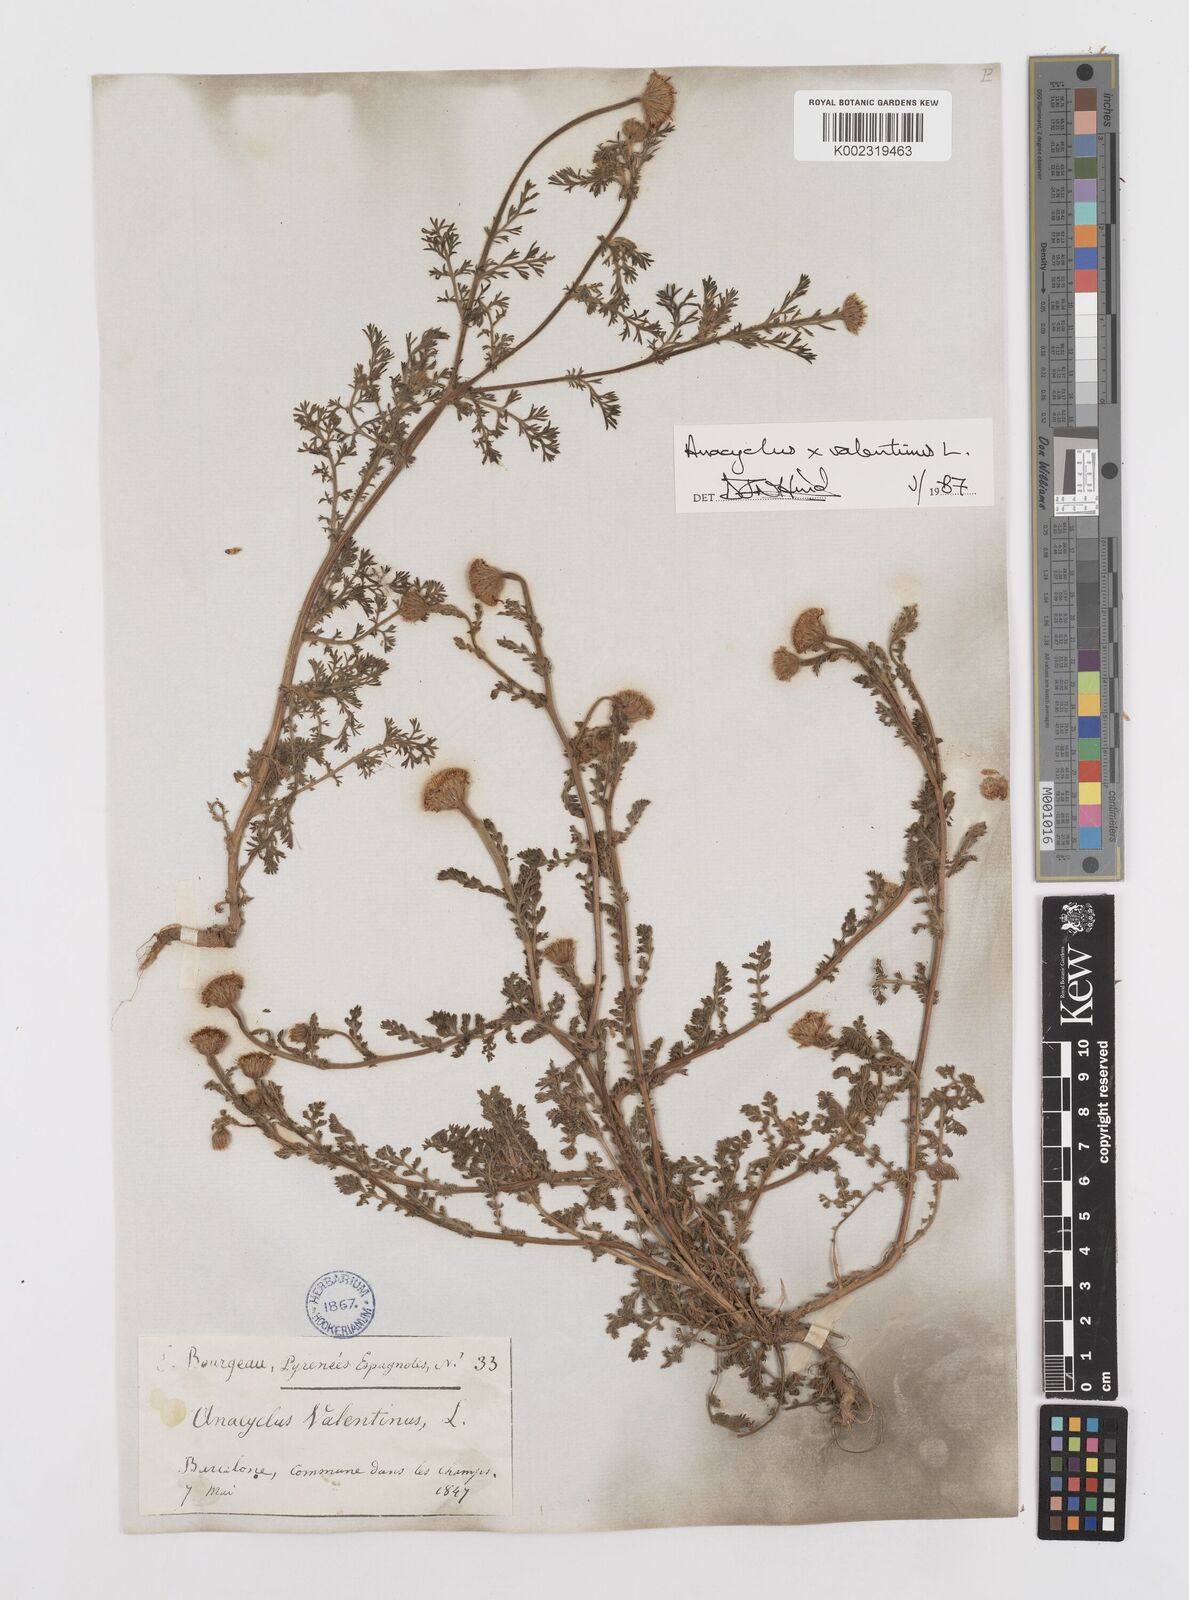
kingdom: Plantae
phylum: Tracheophyta
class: Magnoliopsida
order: Asterales
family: Asteraceae
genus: Anacyclus
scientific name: Anacyclus valentinus
